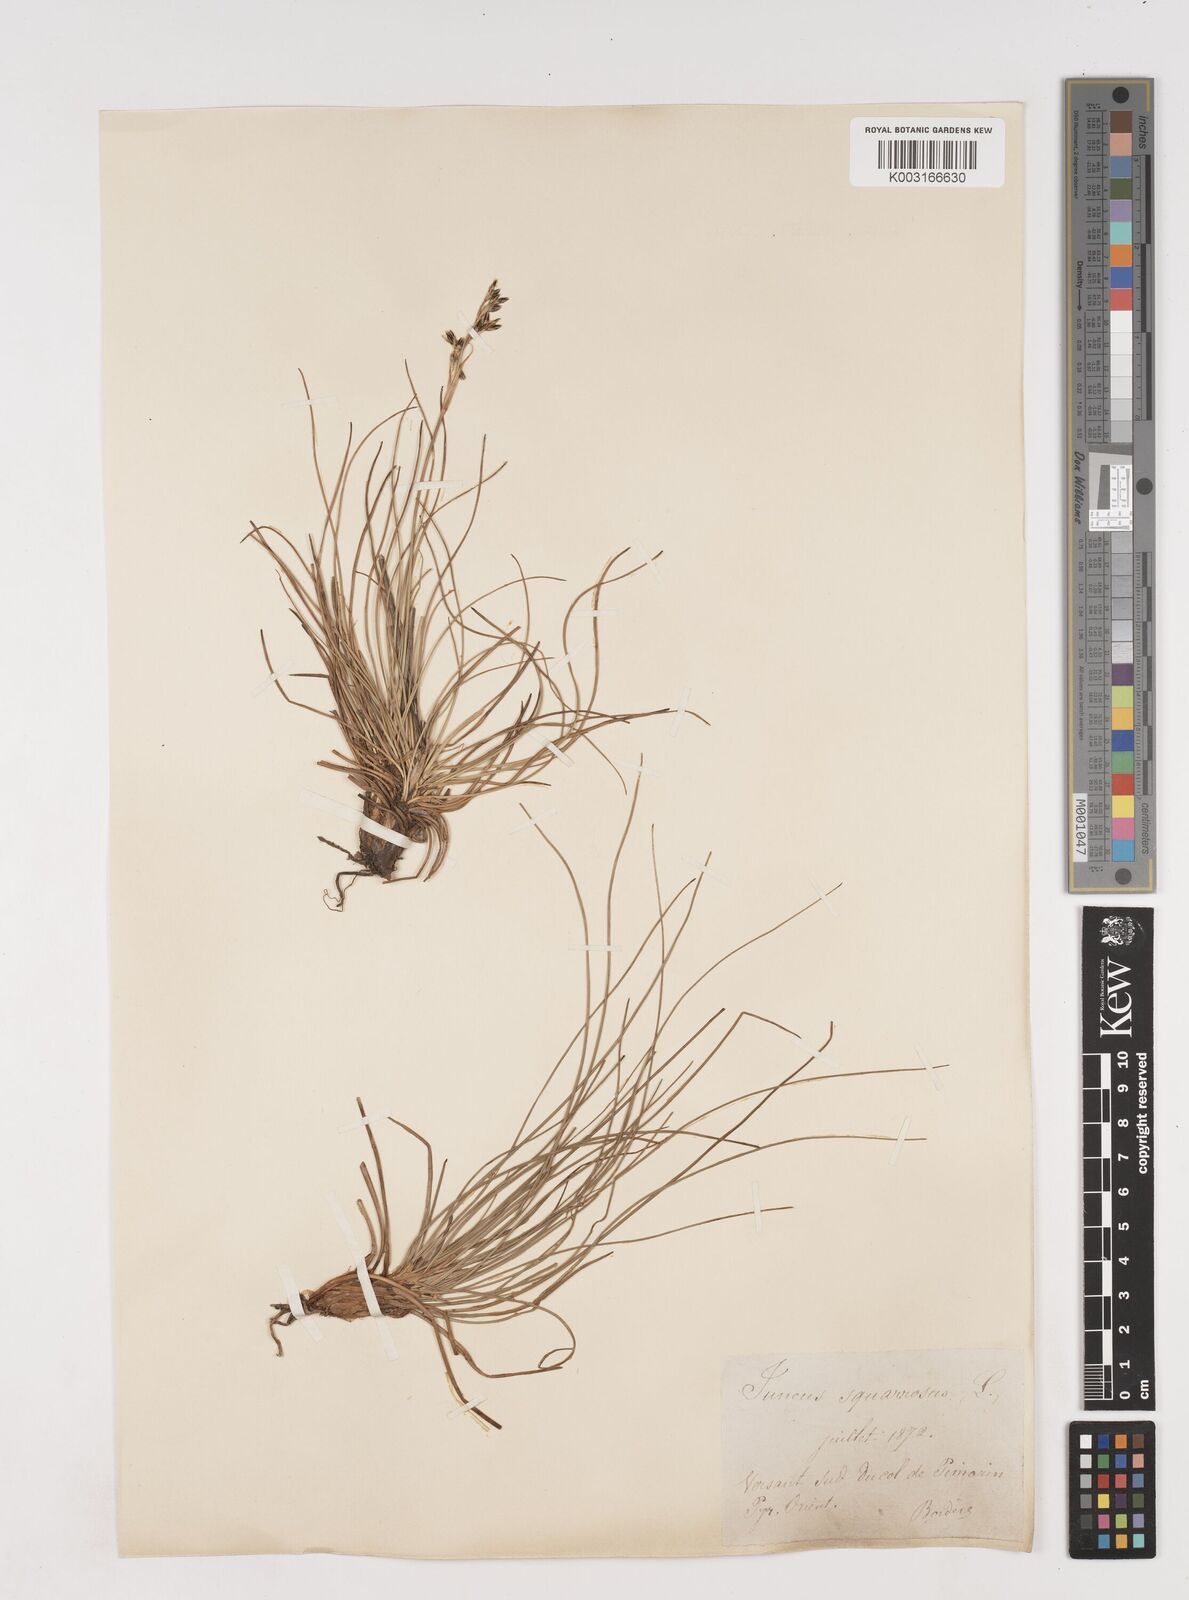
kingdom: Plantae
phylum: Tracheophyta
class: Liliopsida
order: Poales
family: Juncaceae
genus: Juncus
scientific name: Juncus squarrosus
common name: Heath rush
